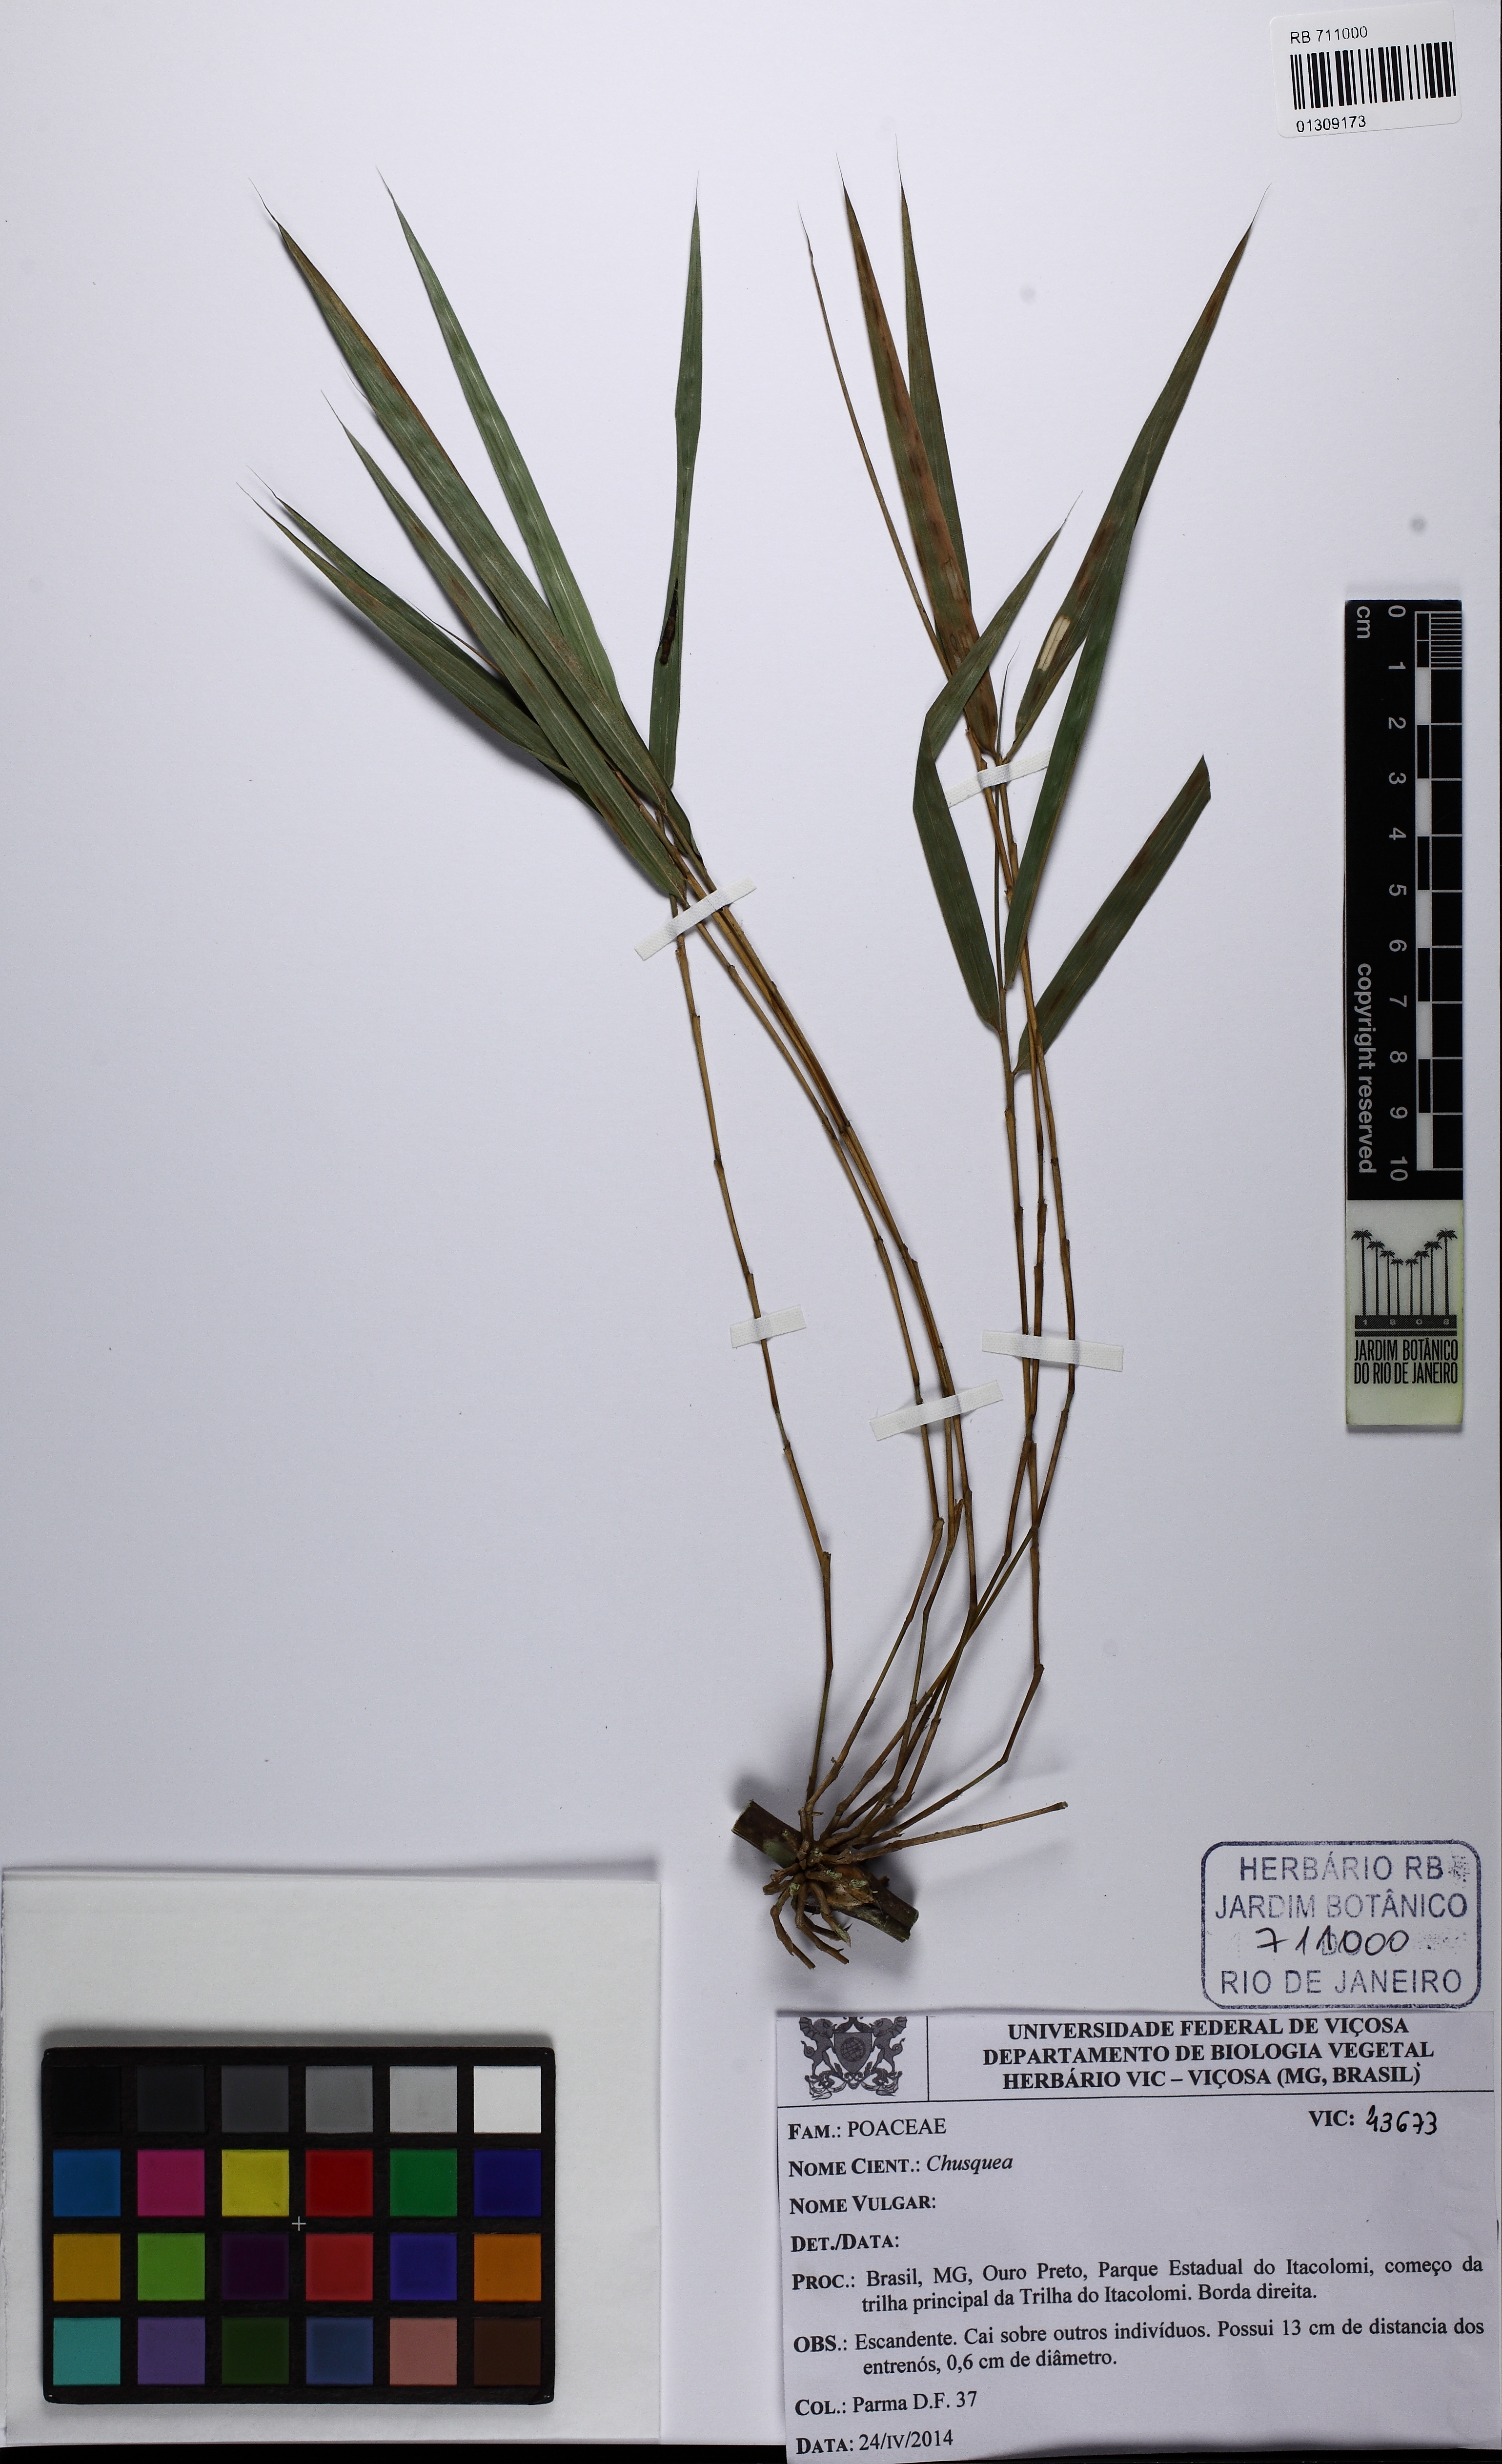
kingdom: Plantae
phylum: Tracheophyta
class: Liliopsida
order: Poales
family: Poaceae
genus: Chusquea
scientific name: Chusquea longispiculata
